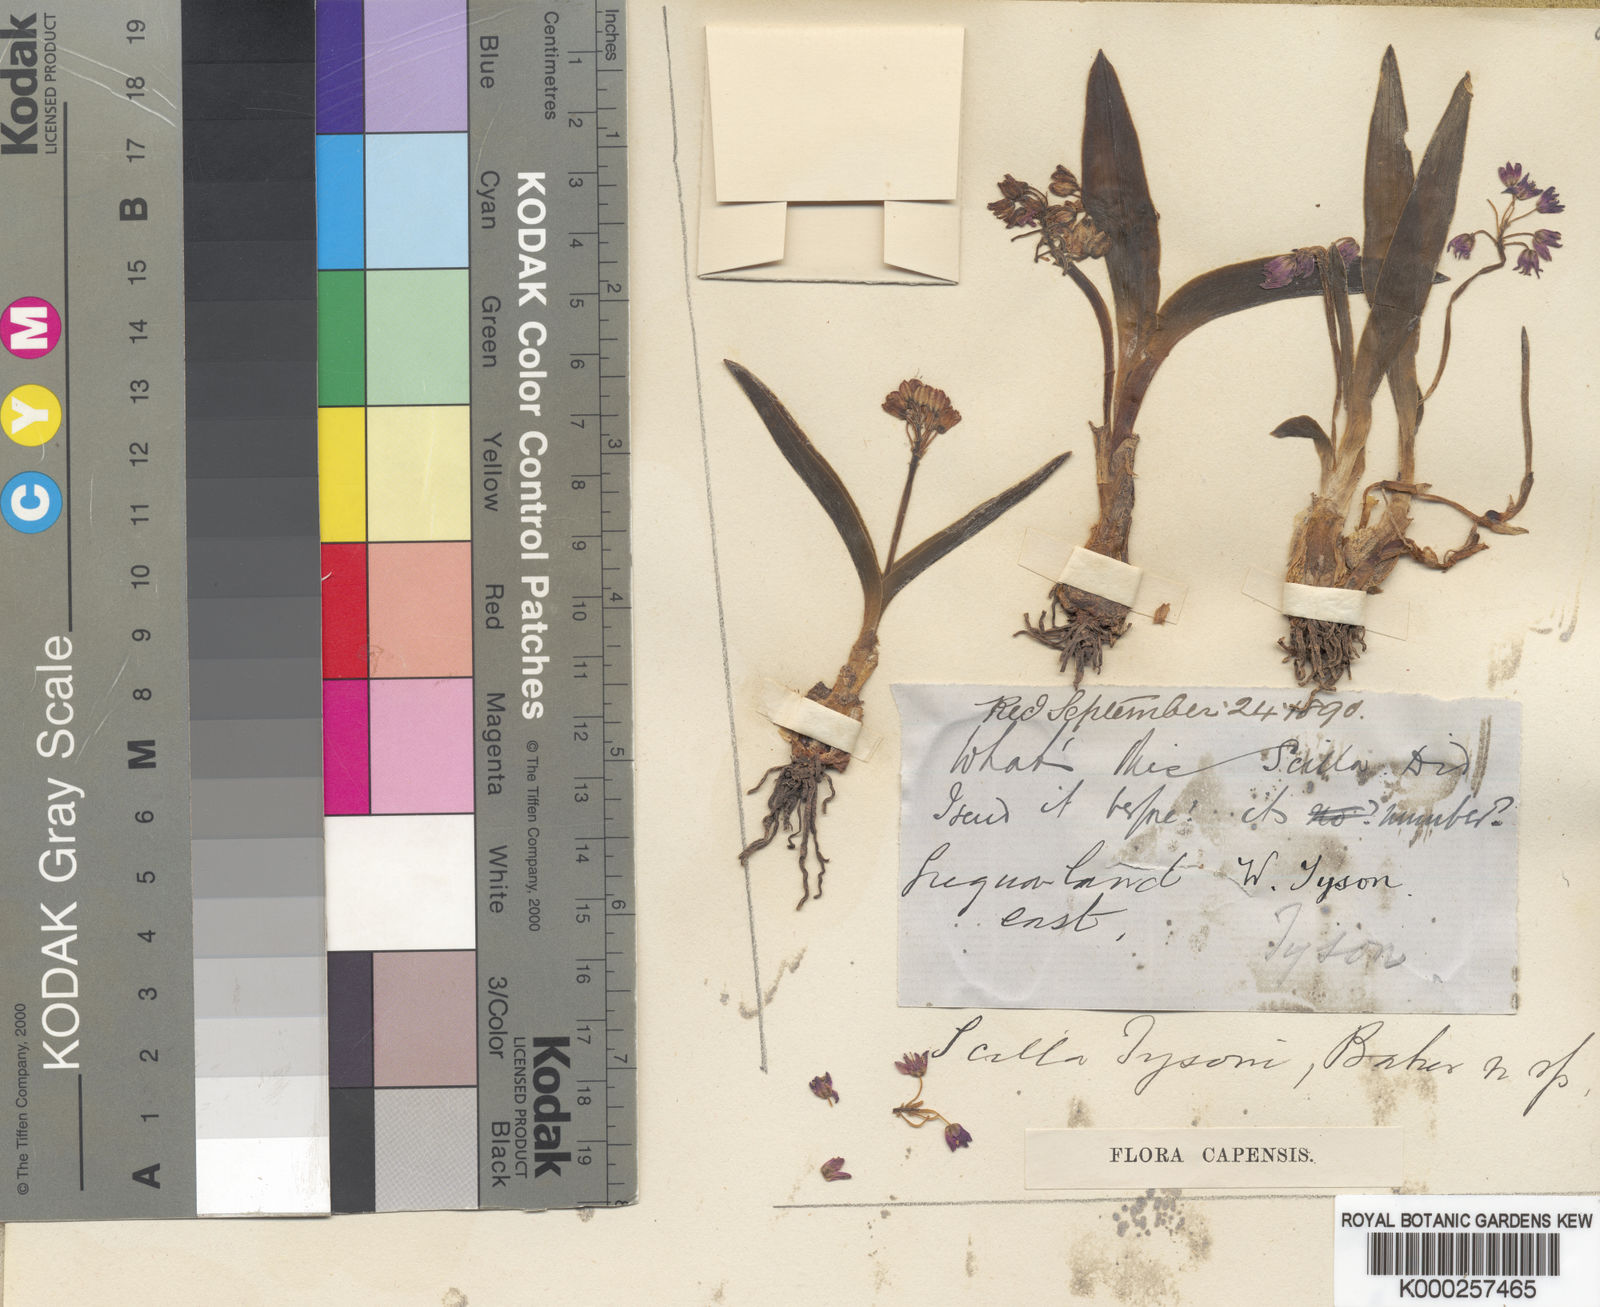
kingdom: Plantae
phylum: Tracheophyta
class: Liliopsida
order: Asparagales
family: Asparagaceae
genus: Ledebouria
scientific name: Ledebouria cooperi
